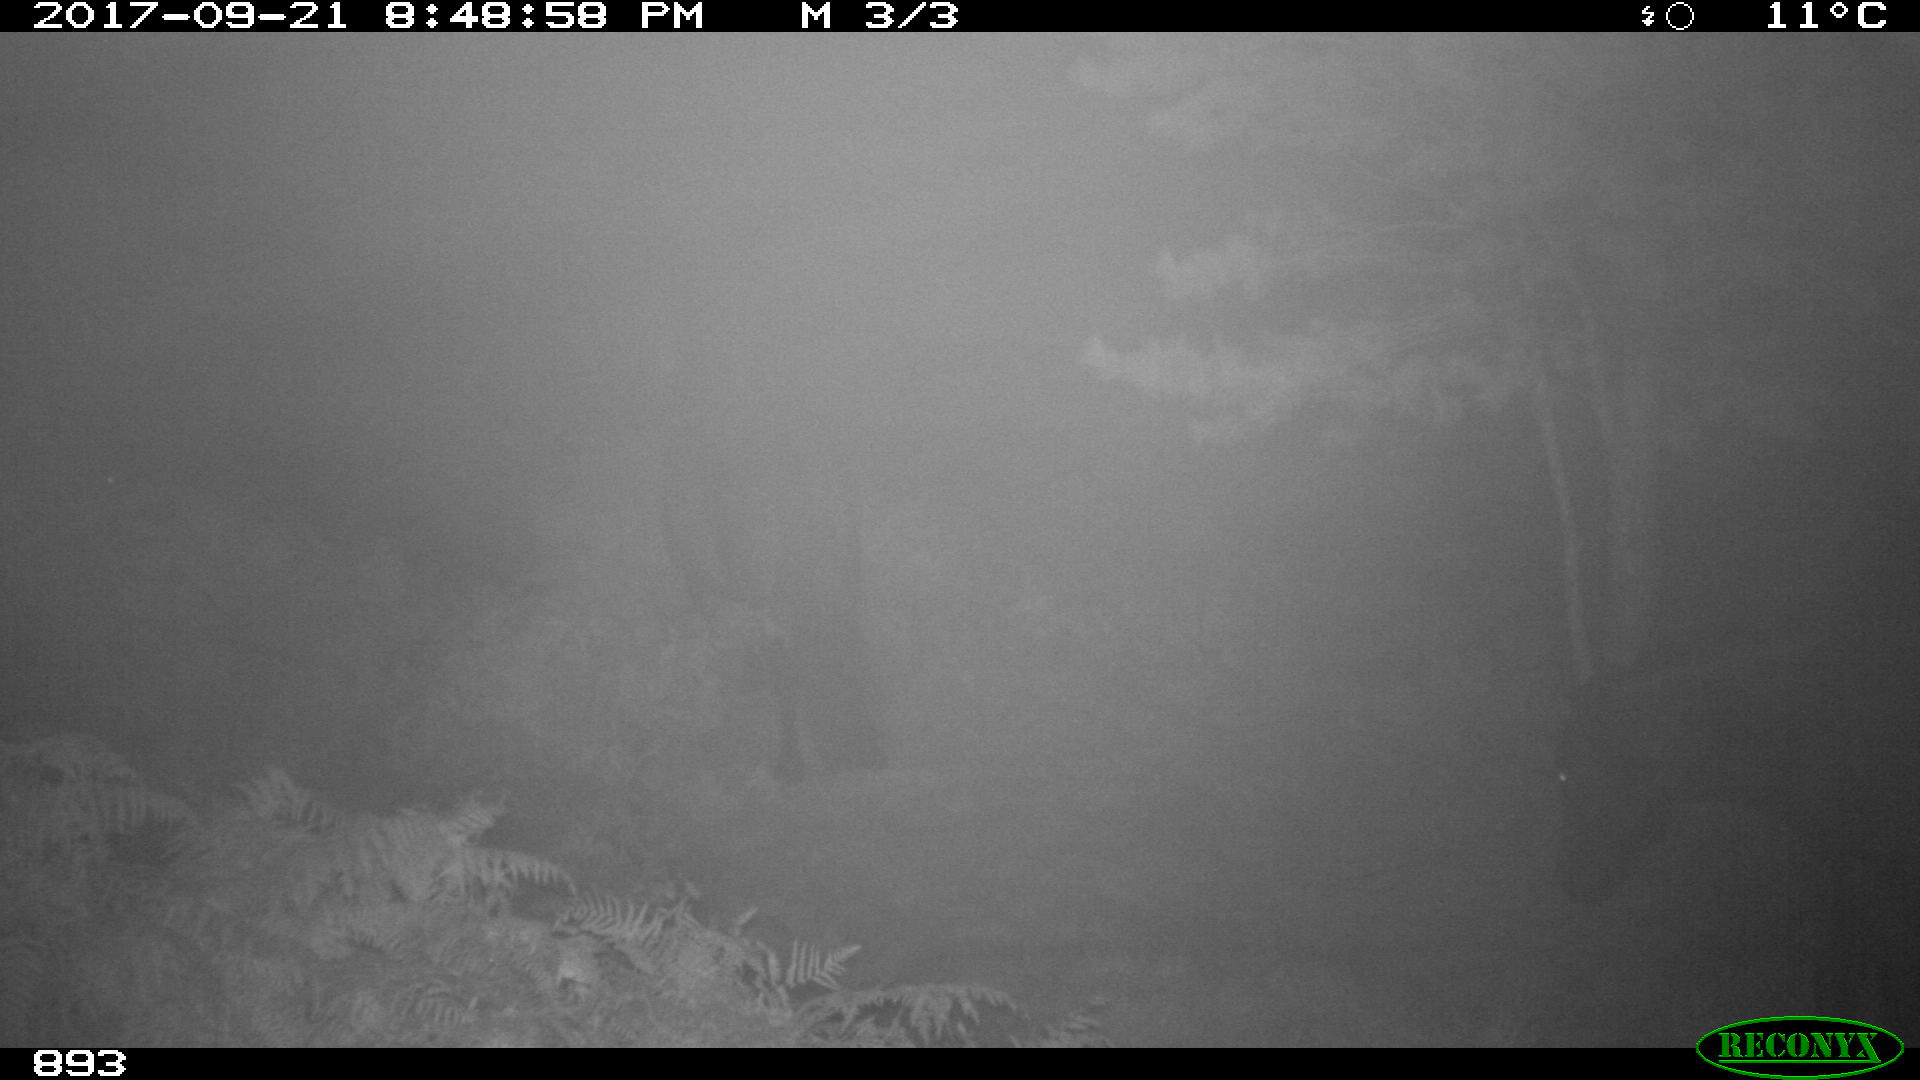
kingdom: Animalia
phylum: Chordata
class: Mammalia
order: Perissodactyla
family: Equidae
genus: Equus
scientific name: Equus caballus
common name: Horse
